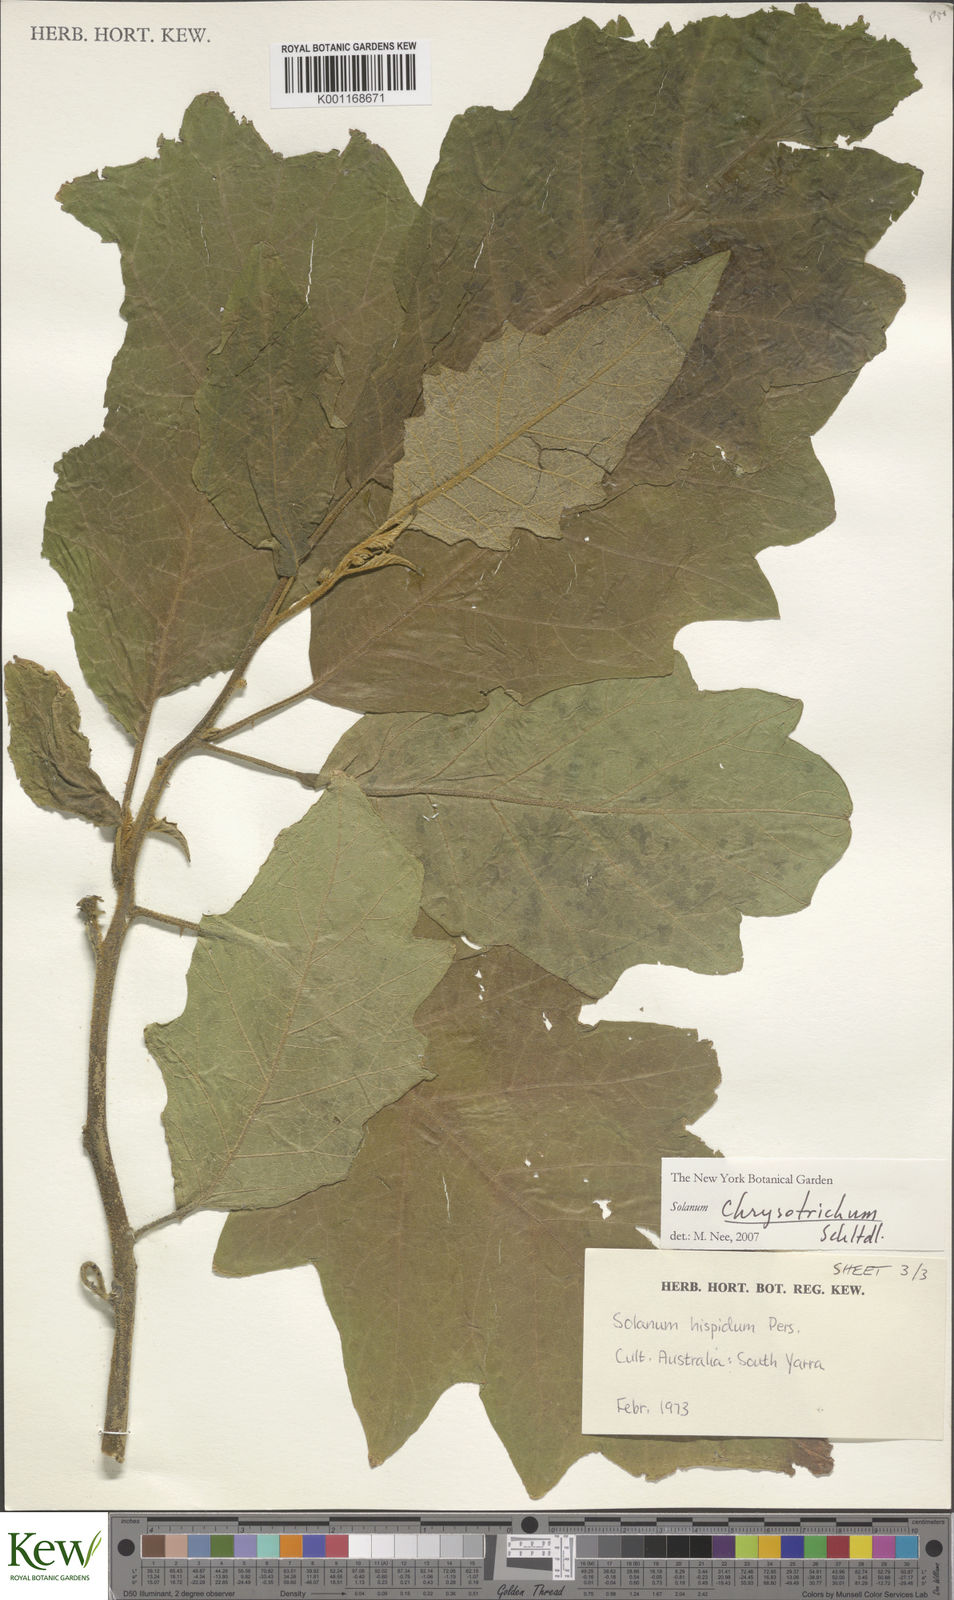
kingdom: Plantae
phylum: Tracheophyta
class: Magnoliopsida
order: Solanales
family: Solanaceae
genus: Solanum
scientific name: Solanum chrysotrichum
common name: Nightshade
